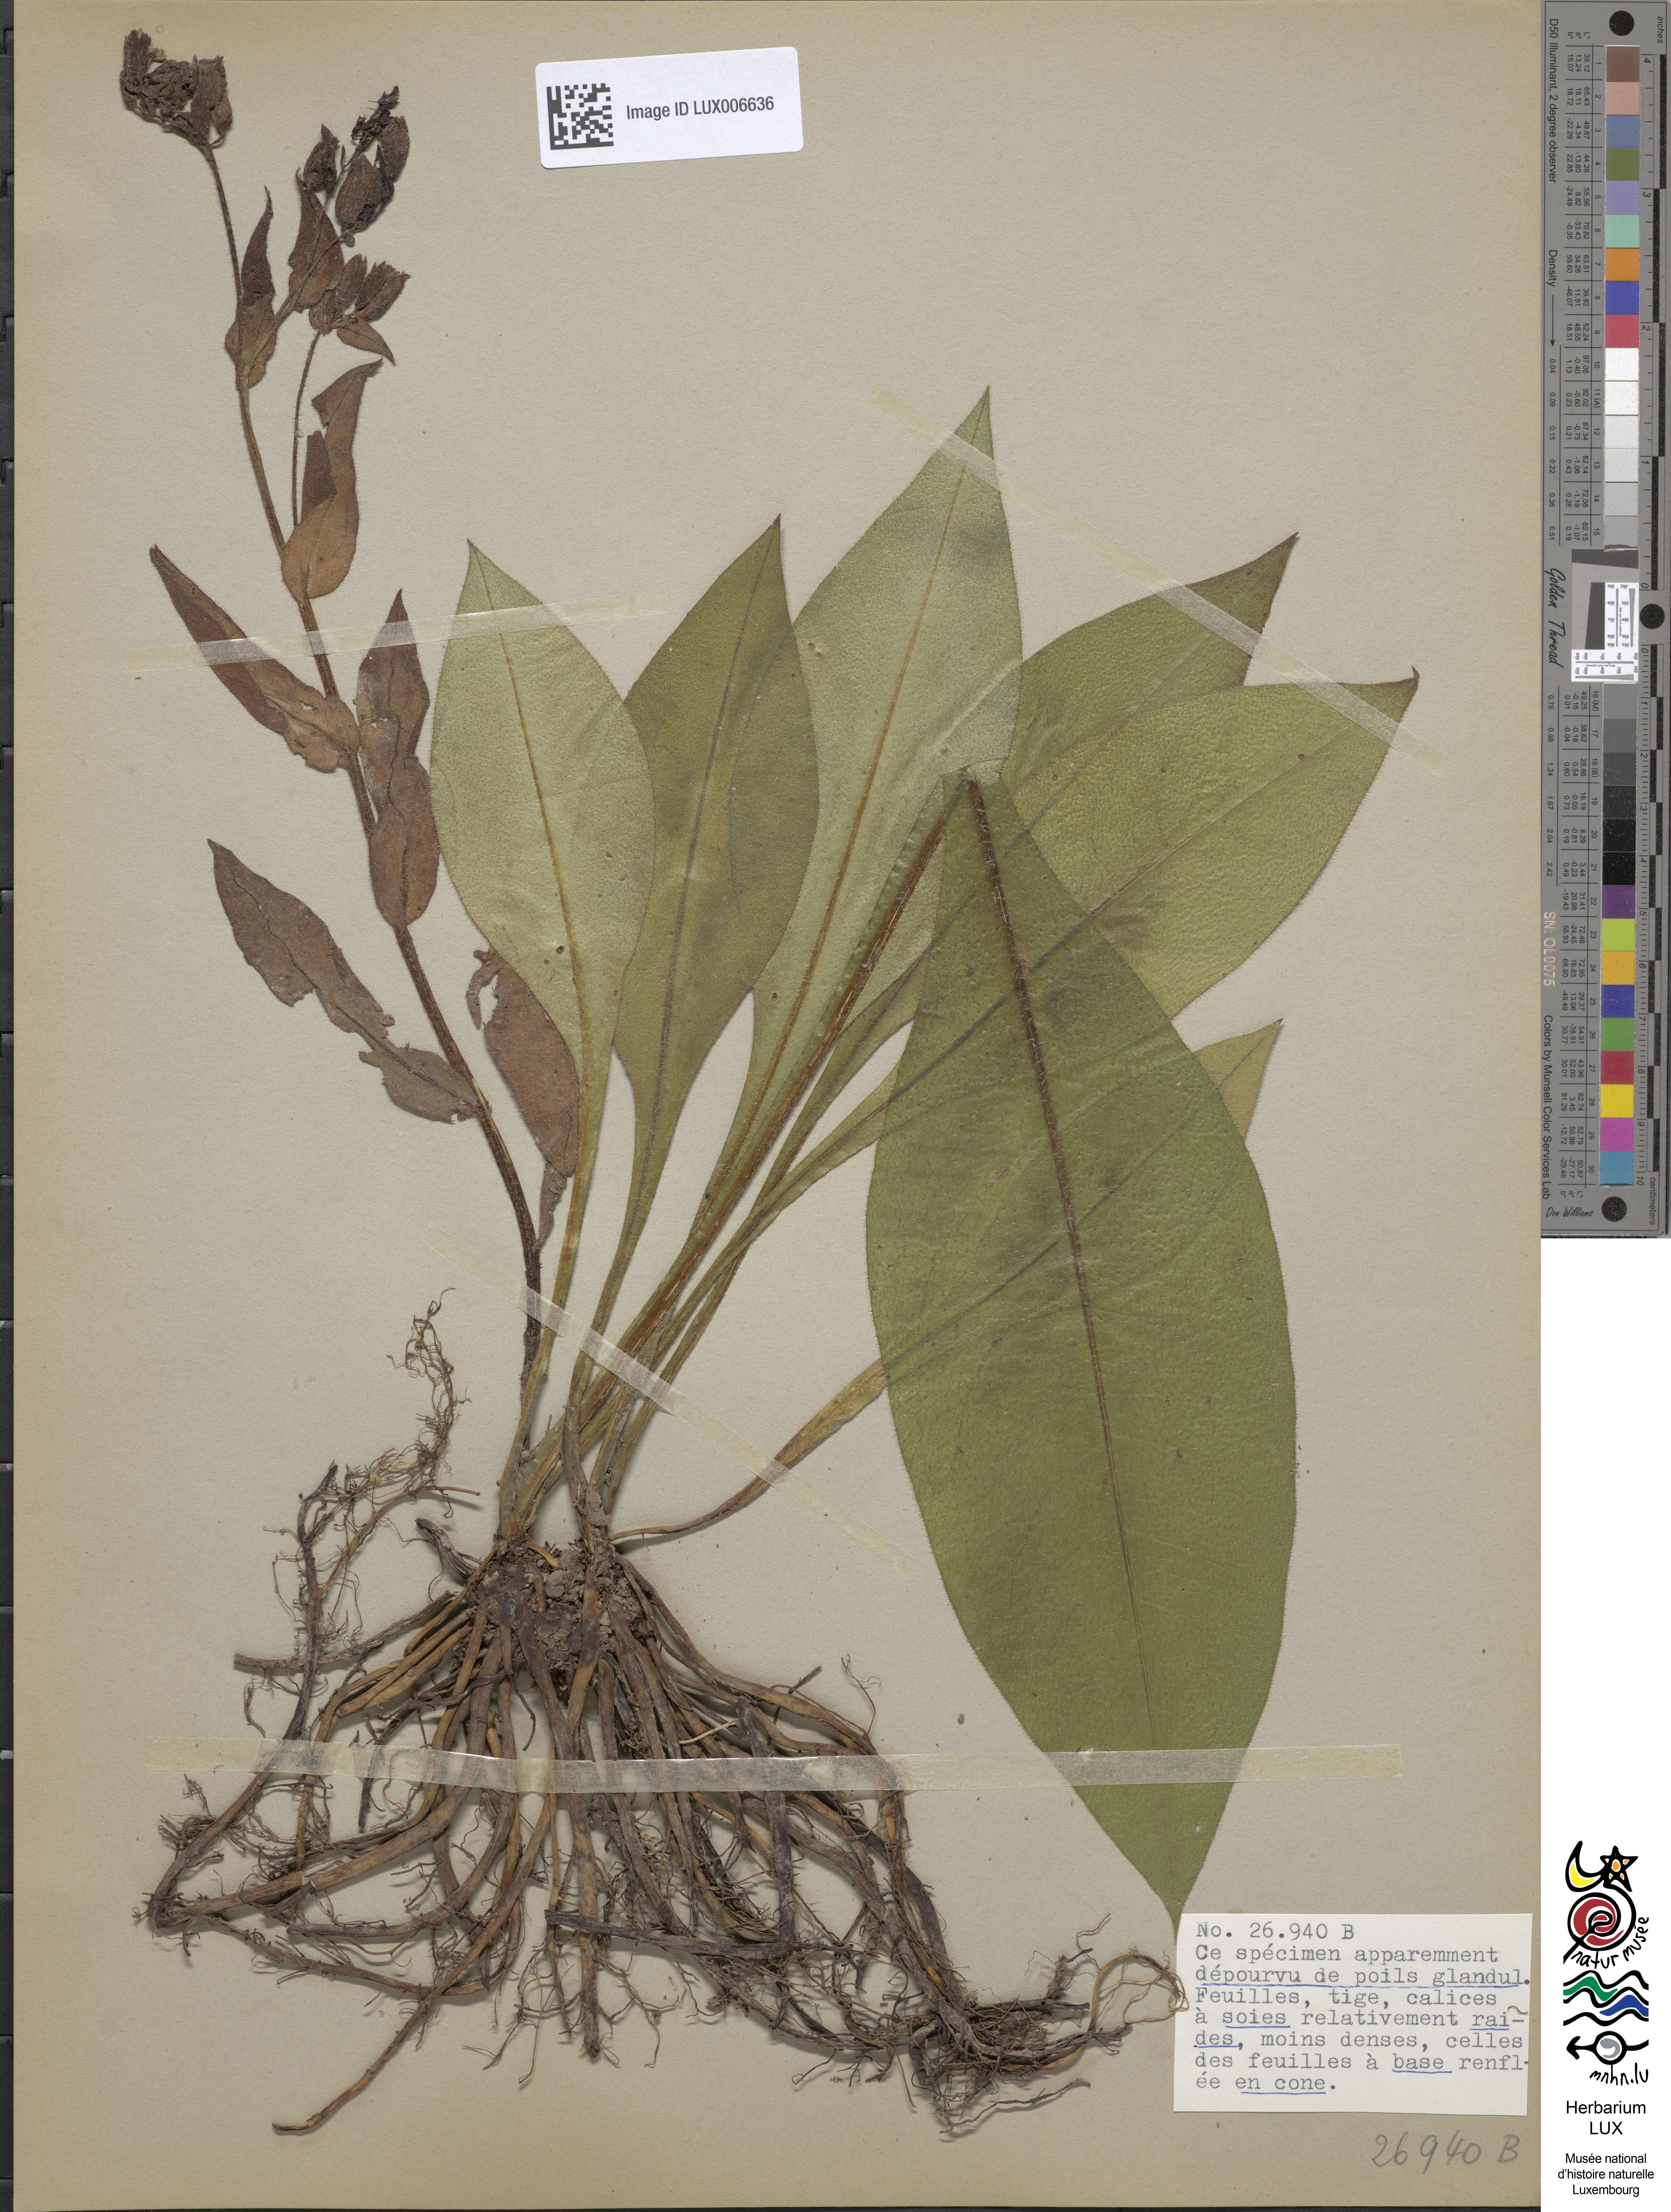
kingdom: Plantae
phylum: Tracheophyta
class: Magnoliopsida
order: Boraginales
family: Boraginaceae
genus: Pulmonaria
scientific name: Pulmonaria montana
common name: Mountain lungwort
